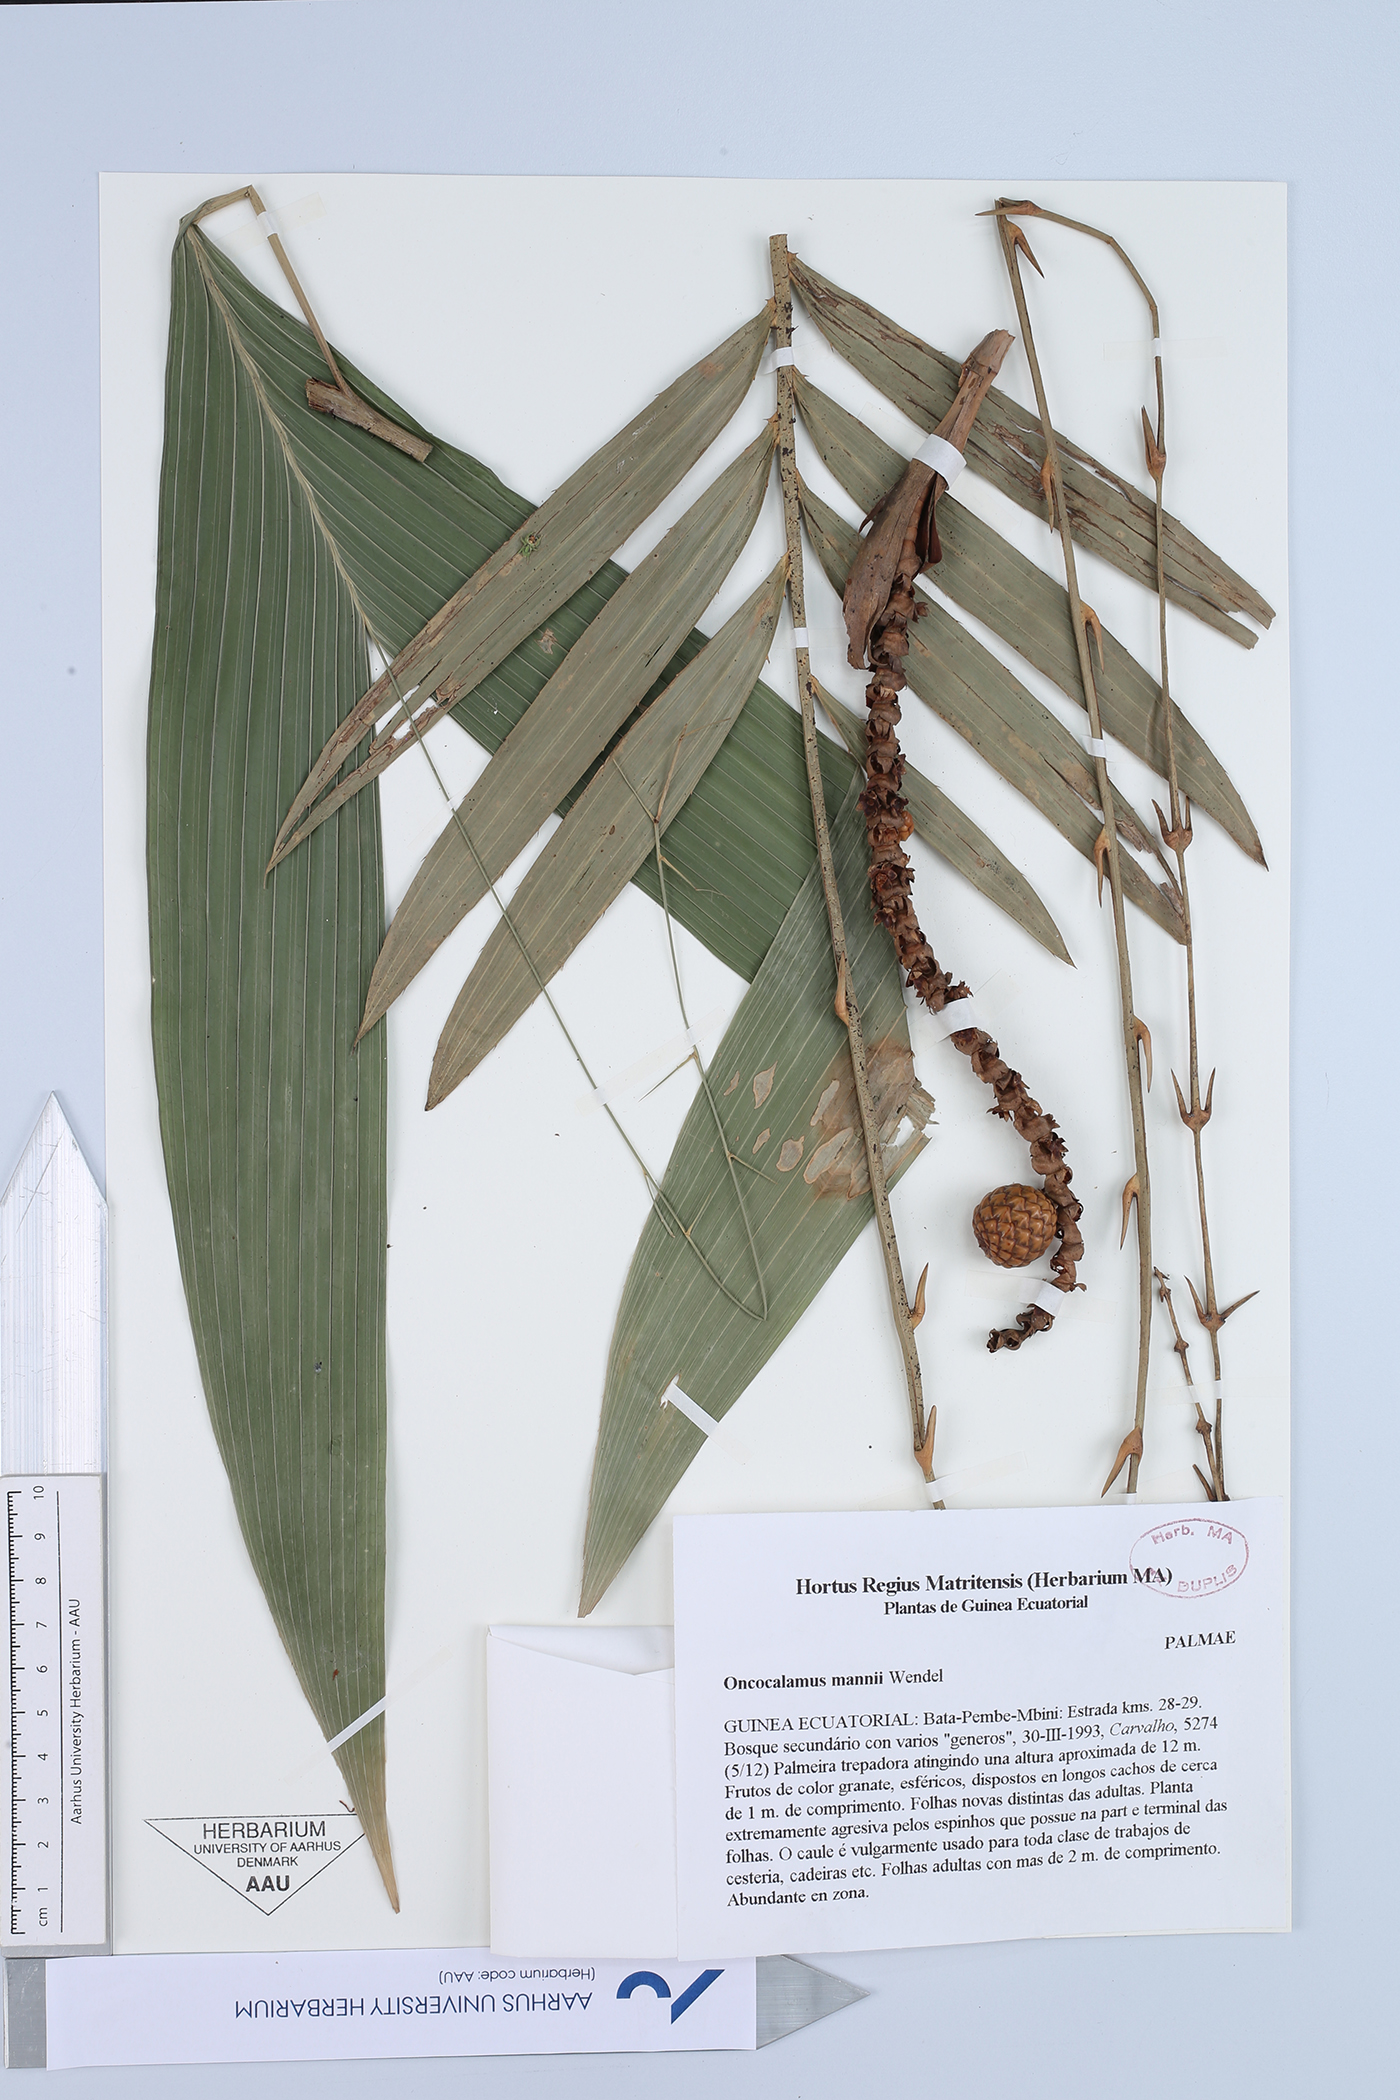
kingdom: Plantae
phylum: Tracheophyta
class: Liliopsida
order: Arecales
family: Arecaceae
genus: Oncocalamus
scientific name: Oncocalamus mannii
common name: Rattan
